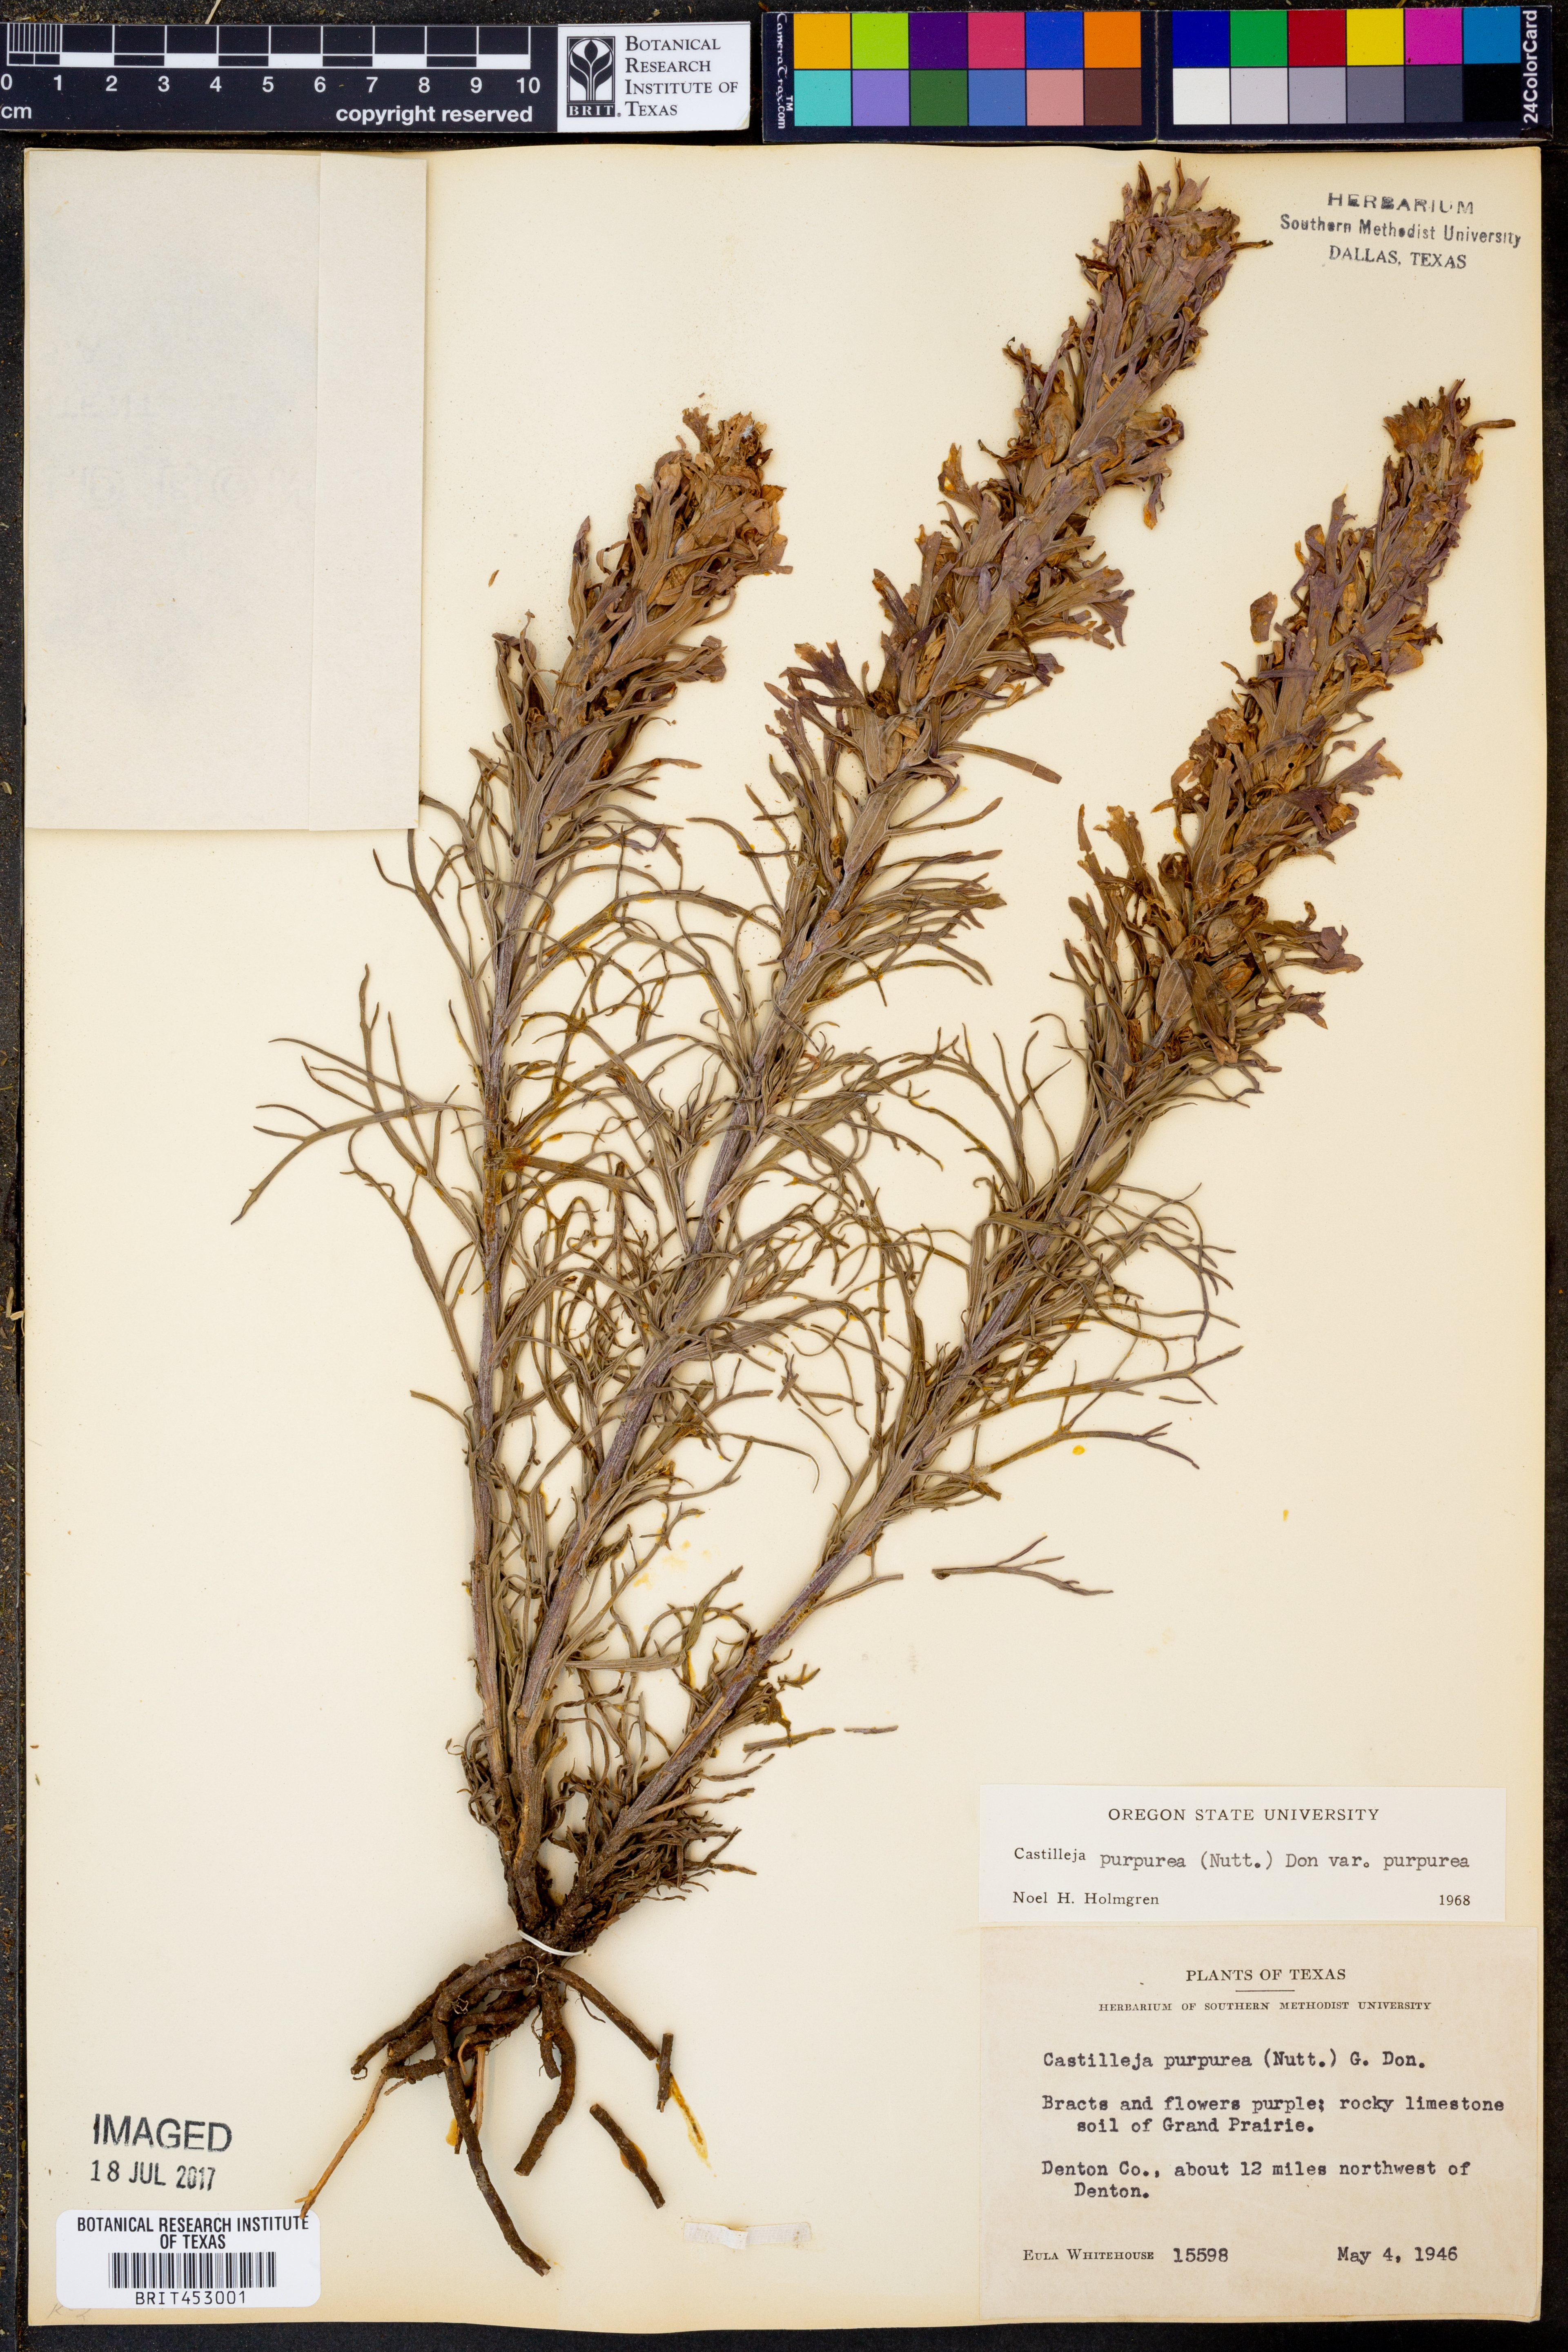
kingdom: Plantae
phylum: Tracheophyta
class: Magnoliopsida
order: Lamiales
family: Orobanchaceae
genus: Castilleja
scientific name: Castilleja purpurea
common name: Plains paintbrush
